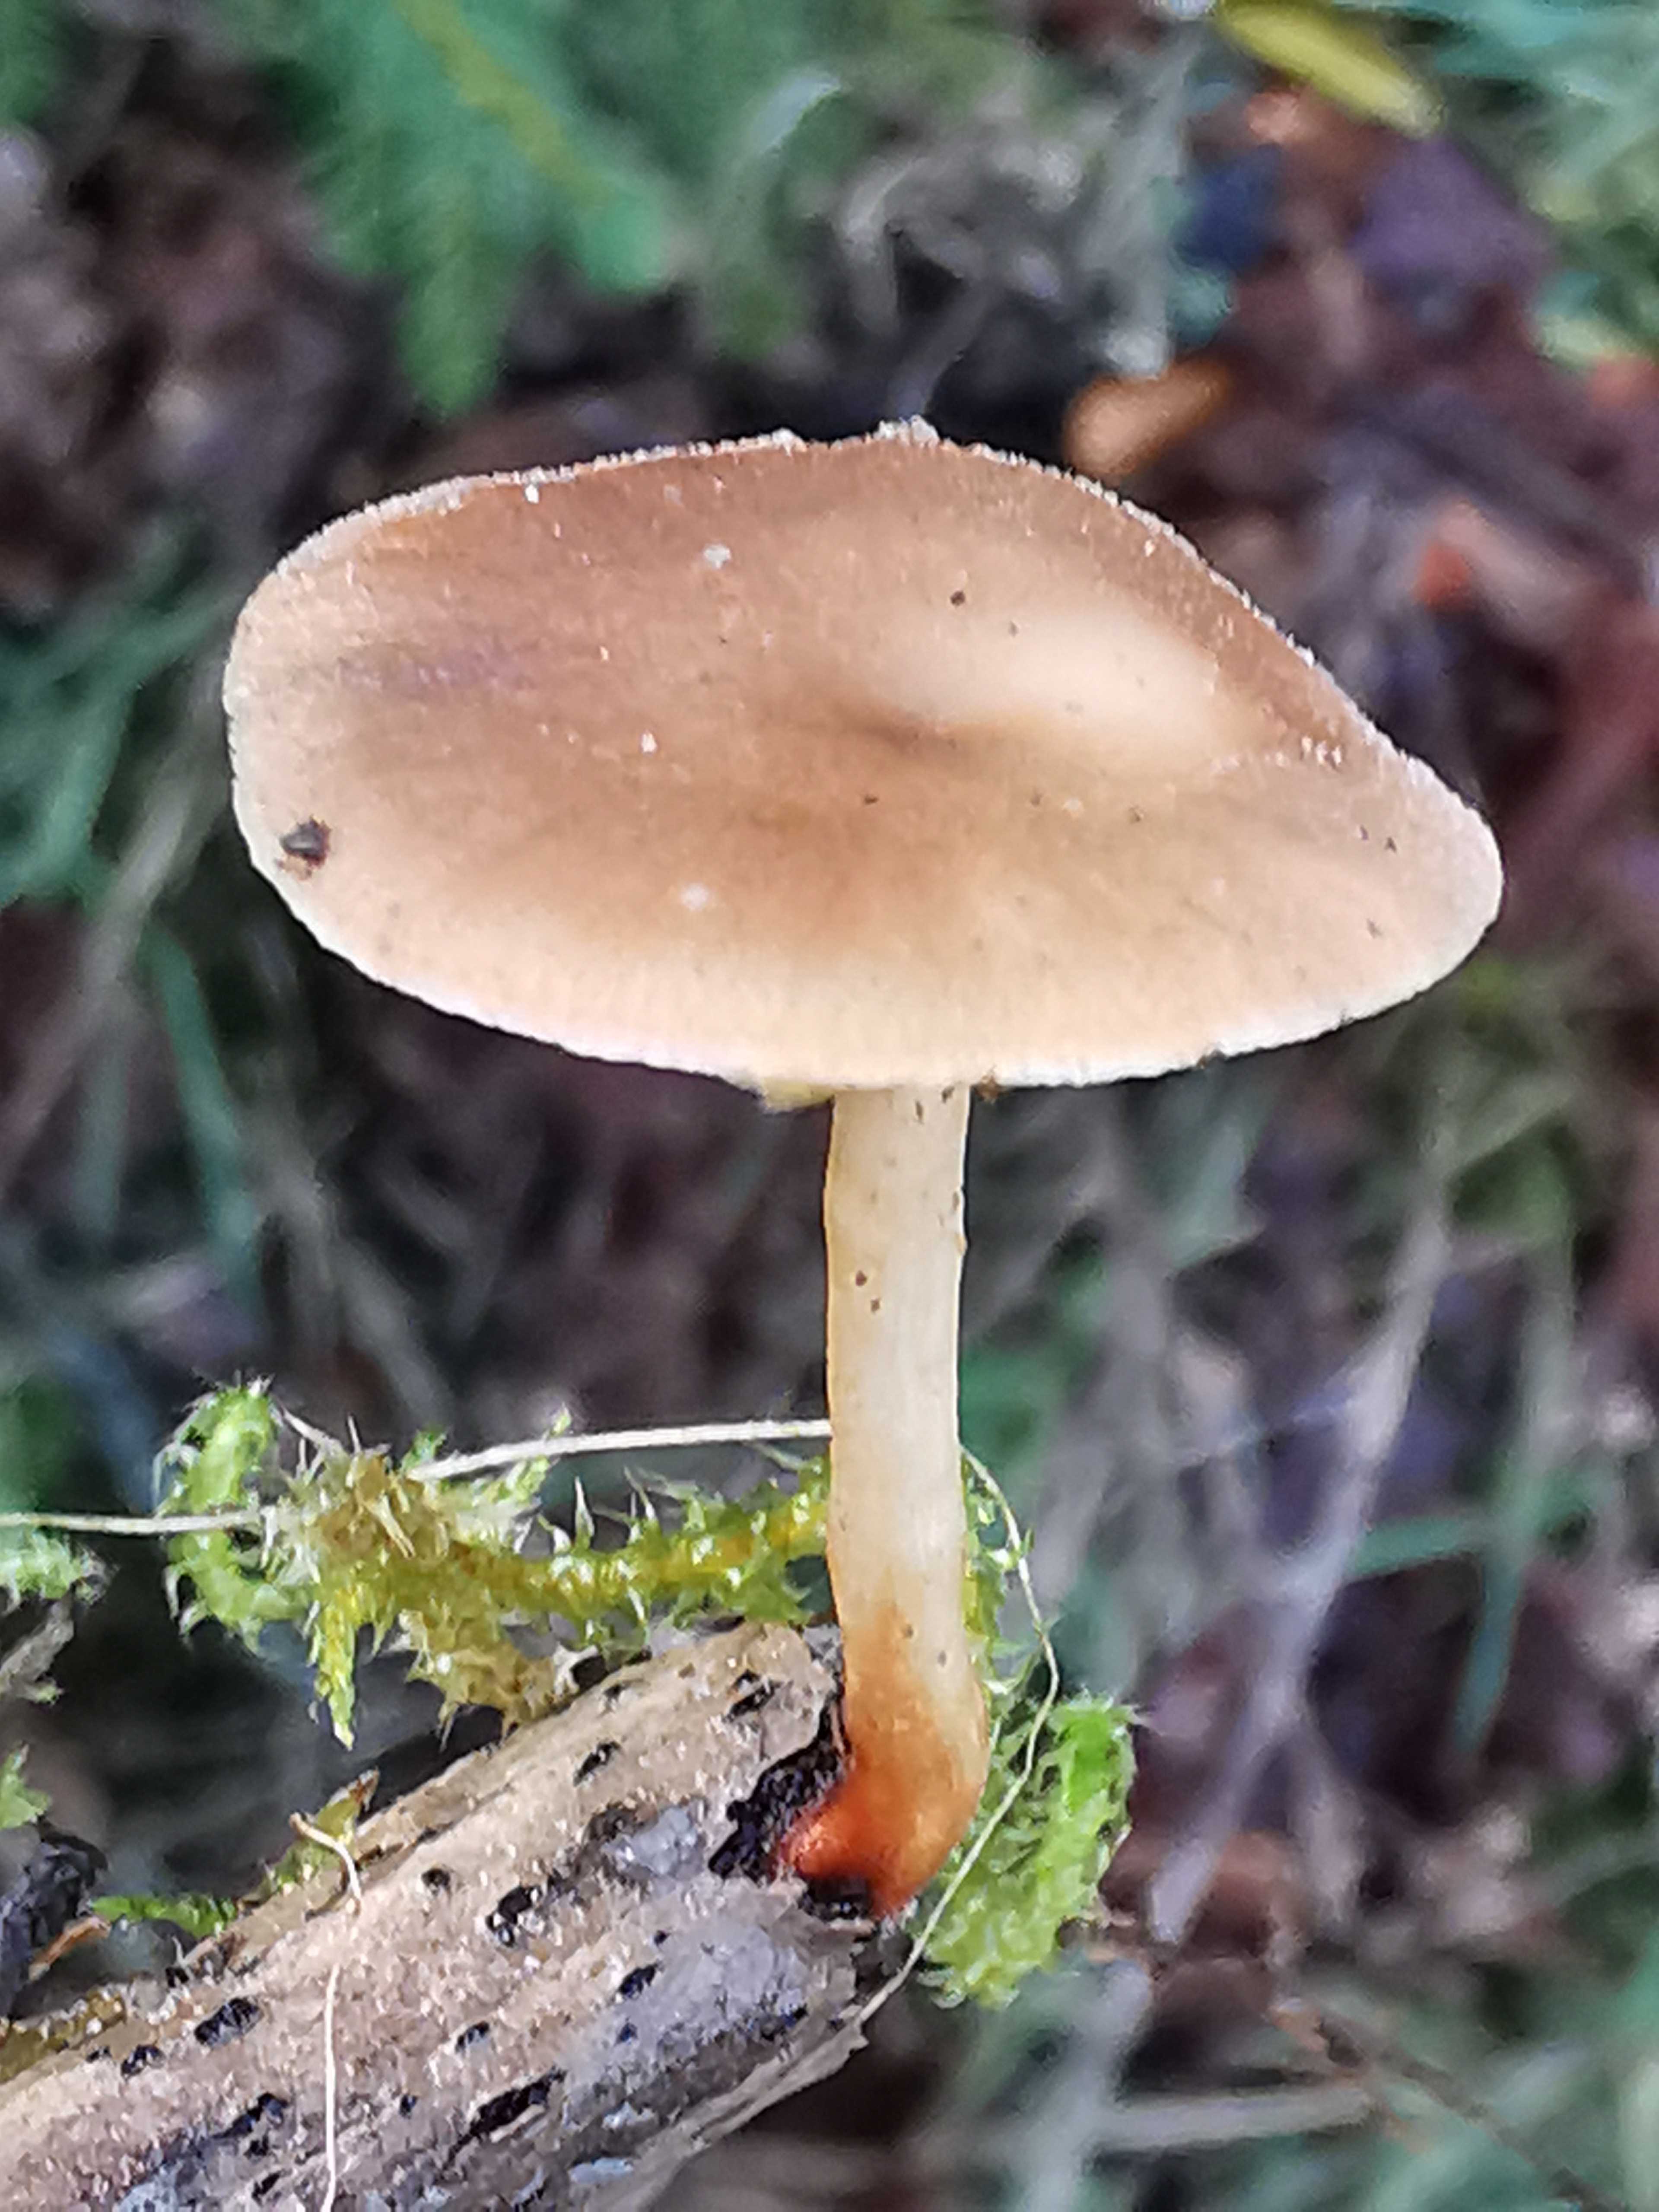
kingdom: Fungi
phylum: Basidiomycota
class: Agaricomycetes
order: Polyporales
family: Polyporaceae
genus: Lentinus
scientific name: Lentinus brumalis
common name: vinter-stilkporesvamp
